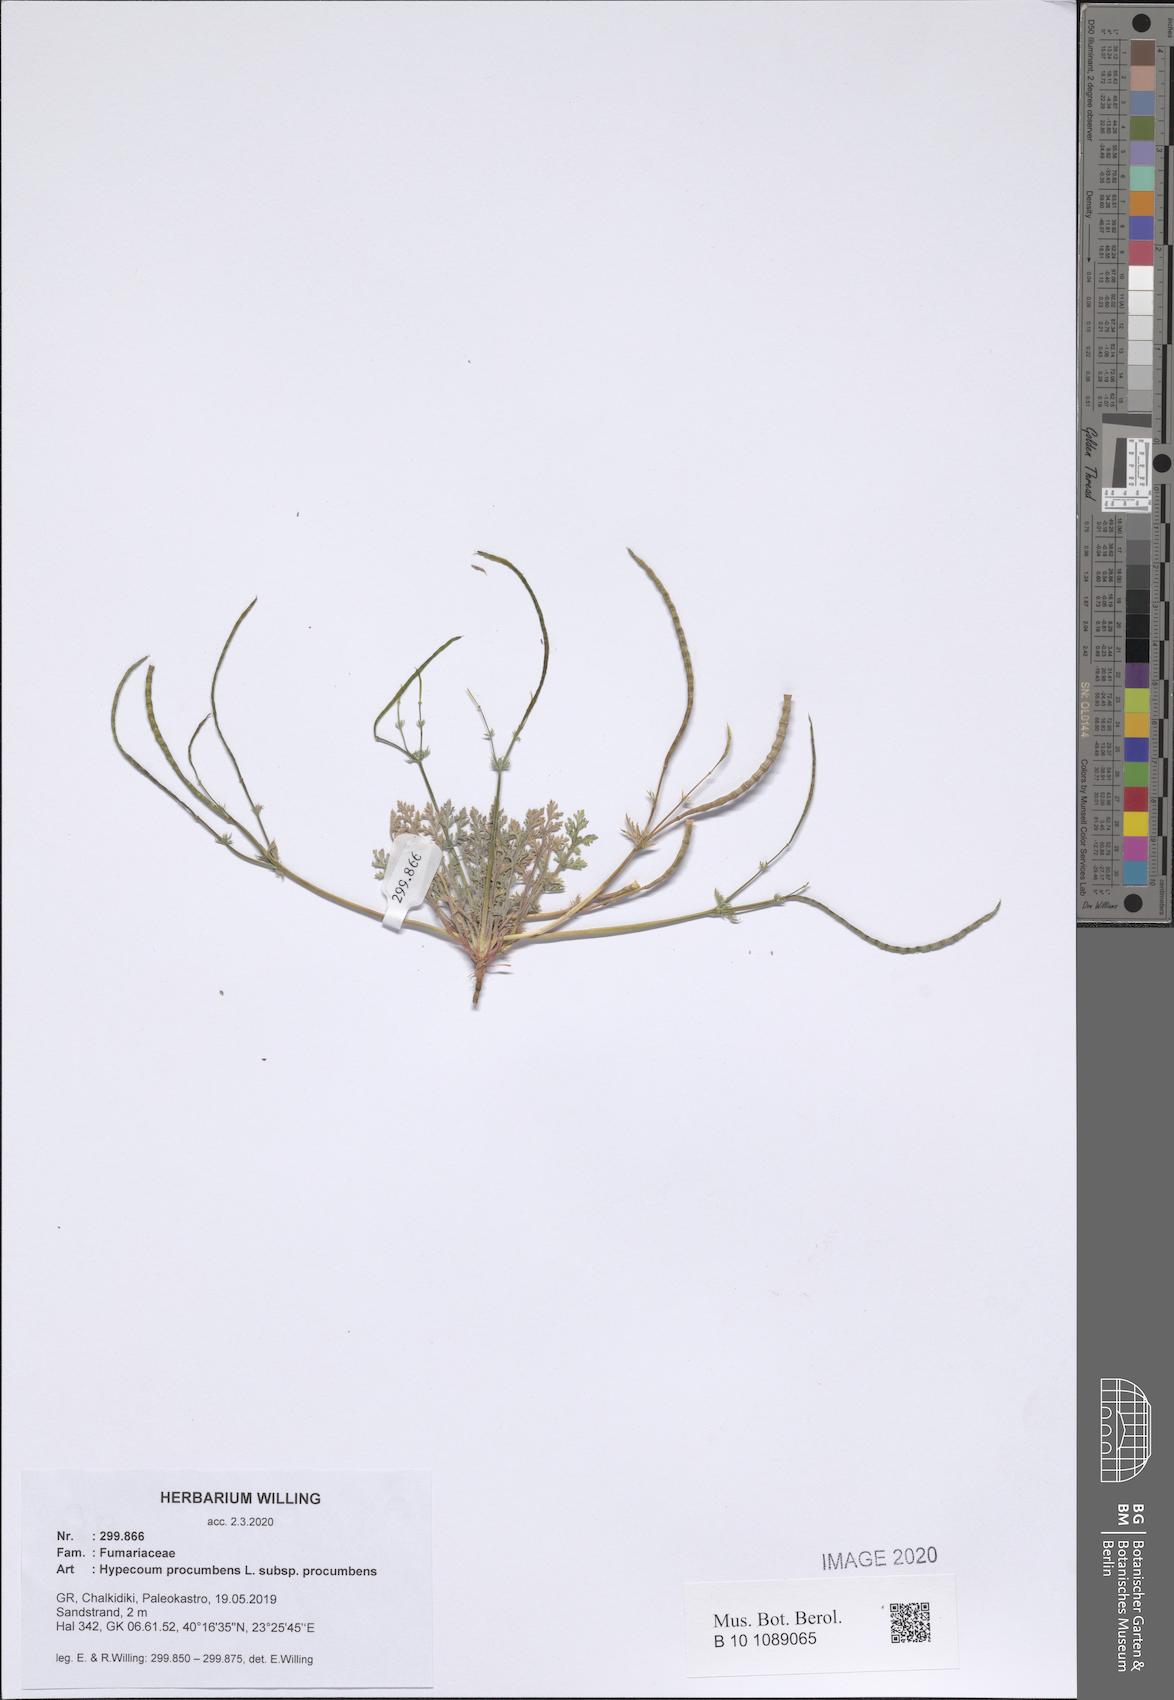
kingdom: Plantae
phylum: Tracheophyta
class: Magnoliopsida
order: Ranunculales
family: Papaveraceae
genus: Hypecoum
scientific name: Hypecoum procumbens
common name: Procumbent hypecoum
